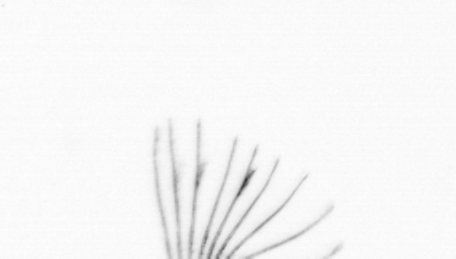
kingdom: Chromista
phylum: Ochrophyta
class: Bacillariophyceae
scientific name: Bacillariophyceae
